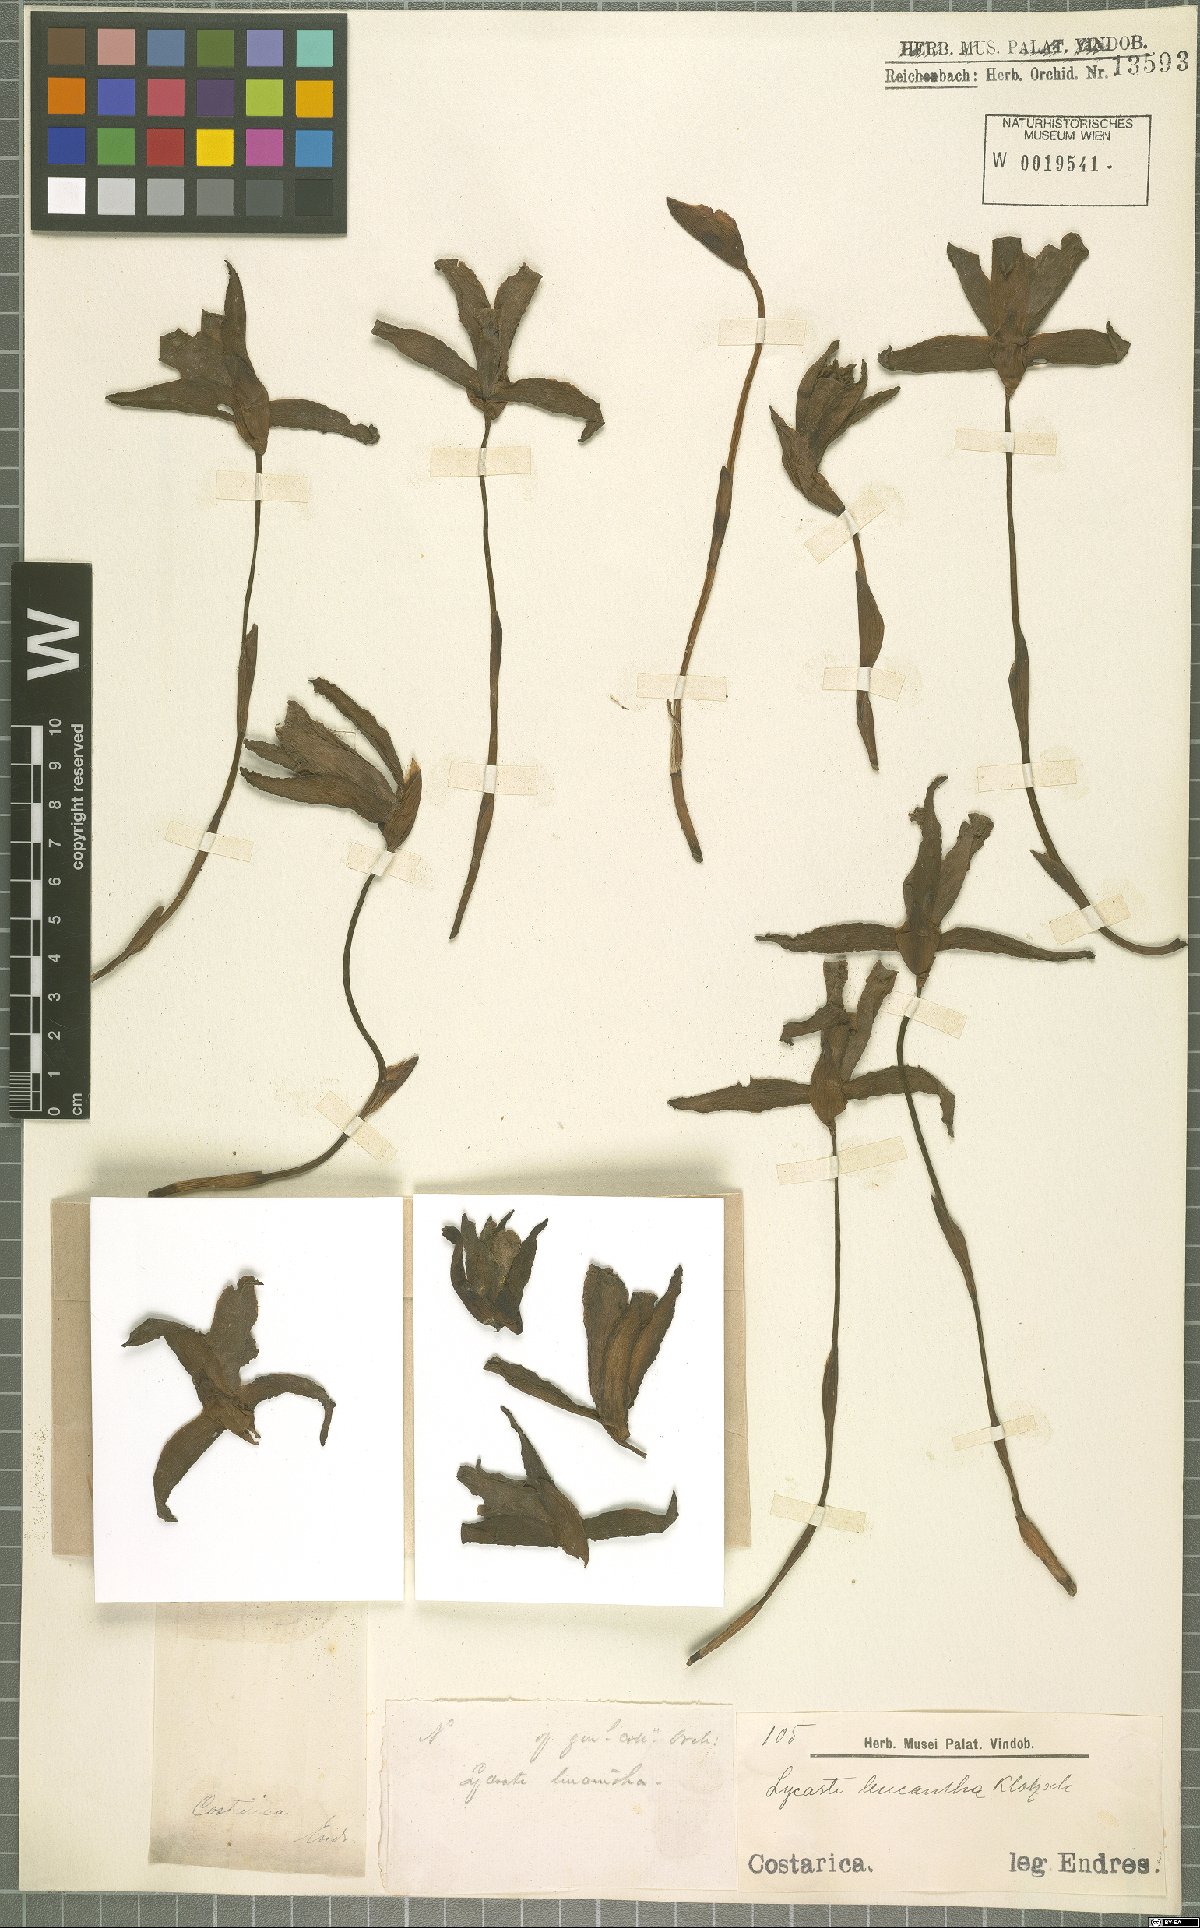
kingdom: Plantae
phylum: Tracheophyta
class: Liliopsida
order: Asparagales
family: Orchidaceae
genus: Lycaste
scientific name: Lycaste leucantha
